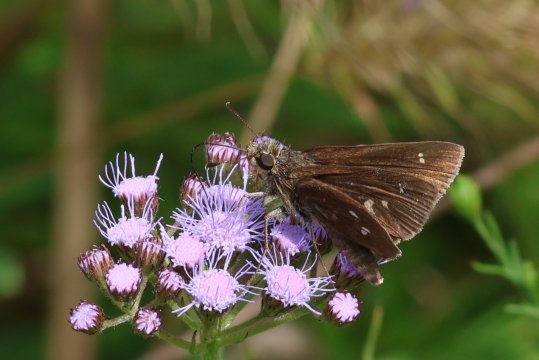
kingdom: Animalia
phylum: Arthropoda
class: Insecta
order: Lepidoptera
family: Hesperiidae
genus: Oligoria
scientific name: Oligoria maculata
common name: Twin-spot Skipper
